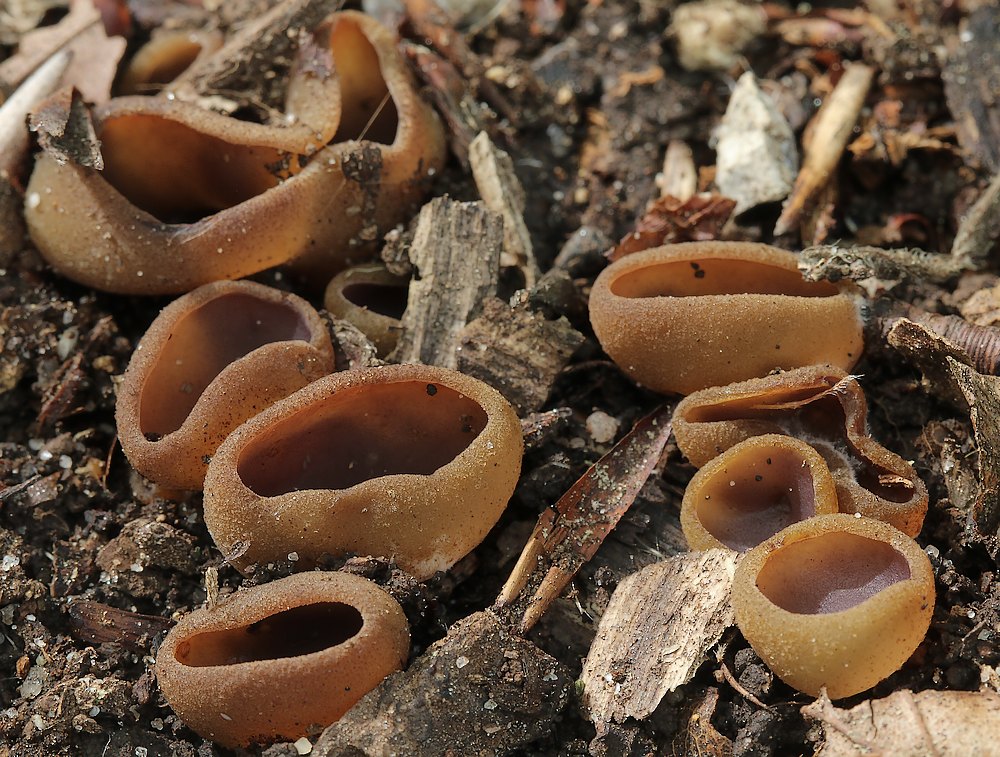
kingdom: Fungi
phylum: Ascomycota
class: Pezizomycetes
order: Pezizales
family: Pezizaceae
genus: Paragalactinia
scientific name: Paragalactinia michelii
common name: gulkødet bægersvamp
